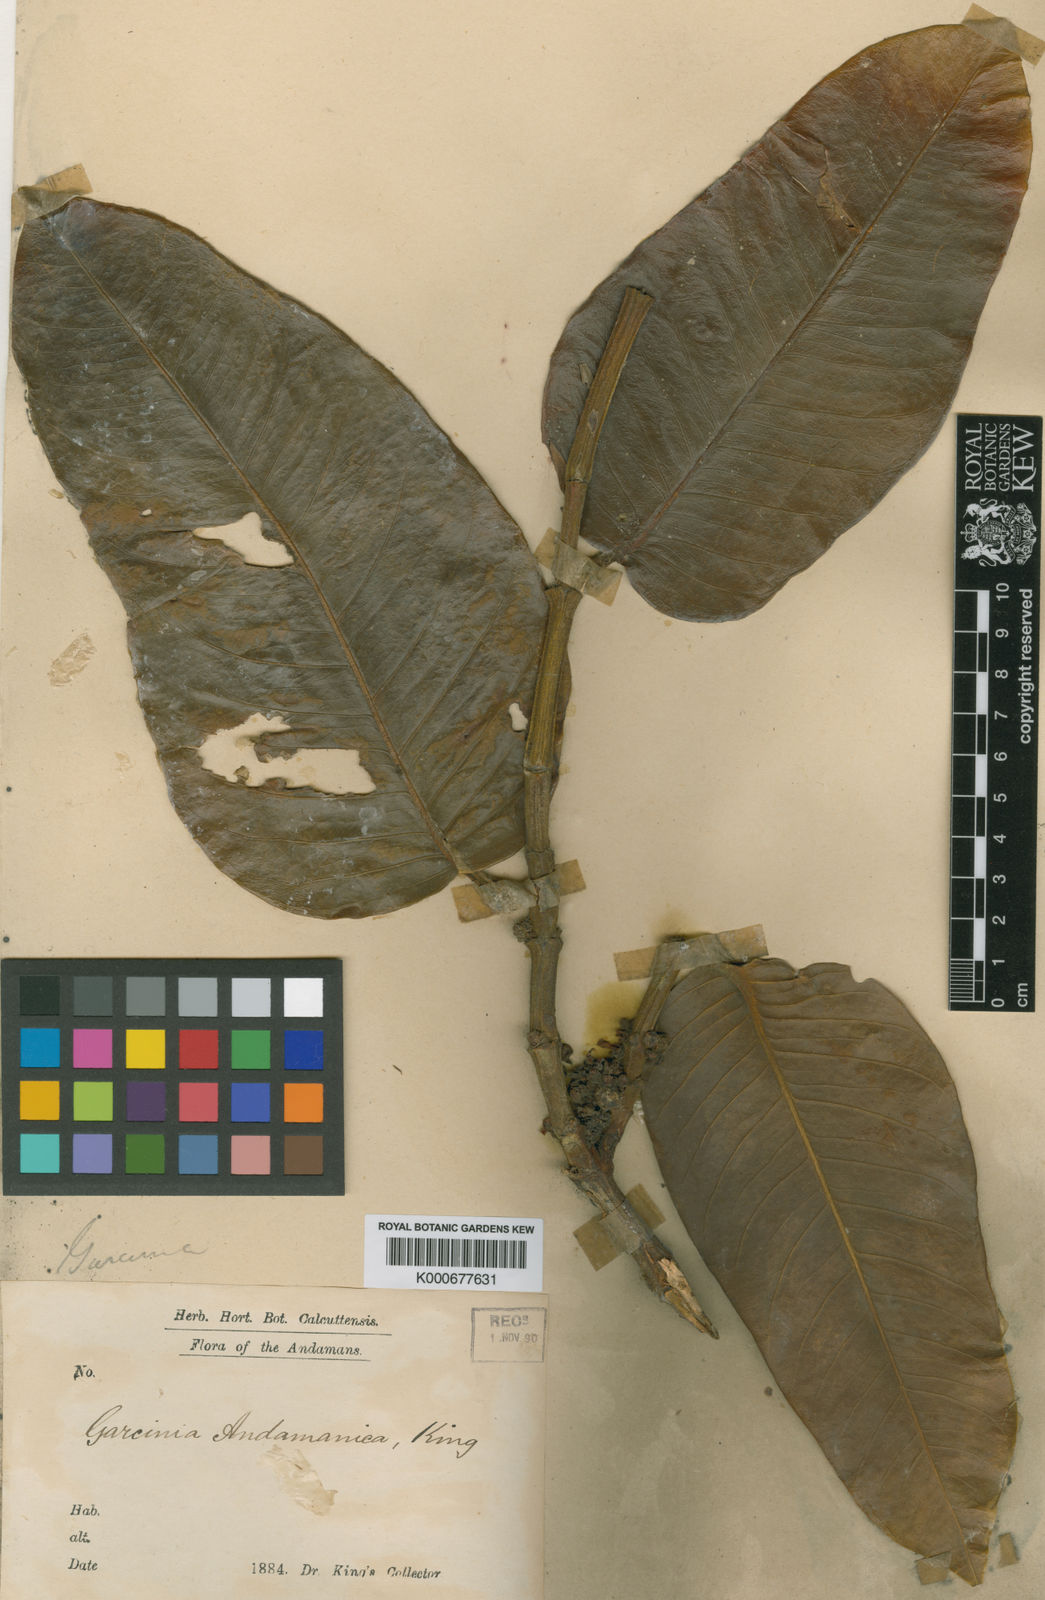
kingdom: Plantae
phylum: Tracheophyta
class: Magnoliopsida
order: Malpighiales
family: Clusiaceae
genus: Garcinia
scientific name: Garcinia andamanica
